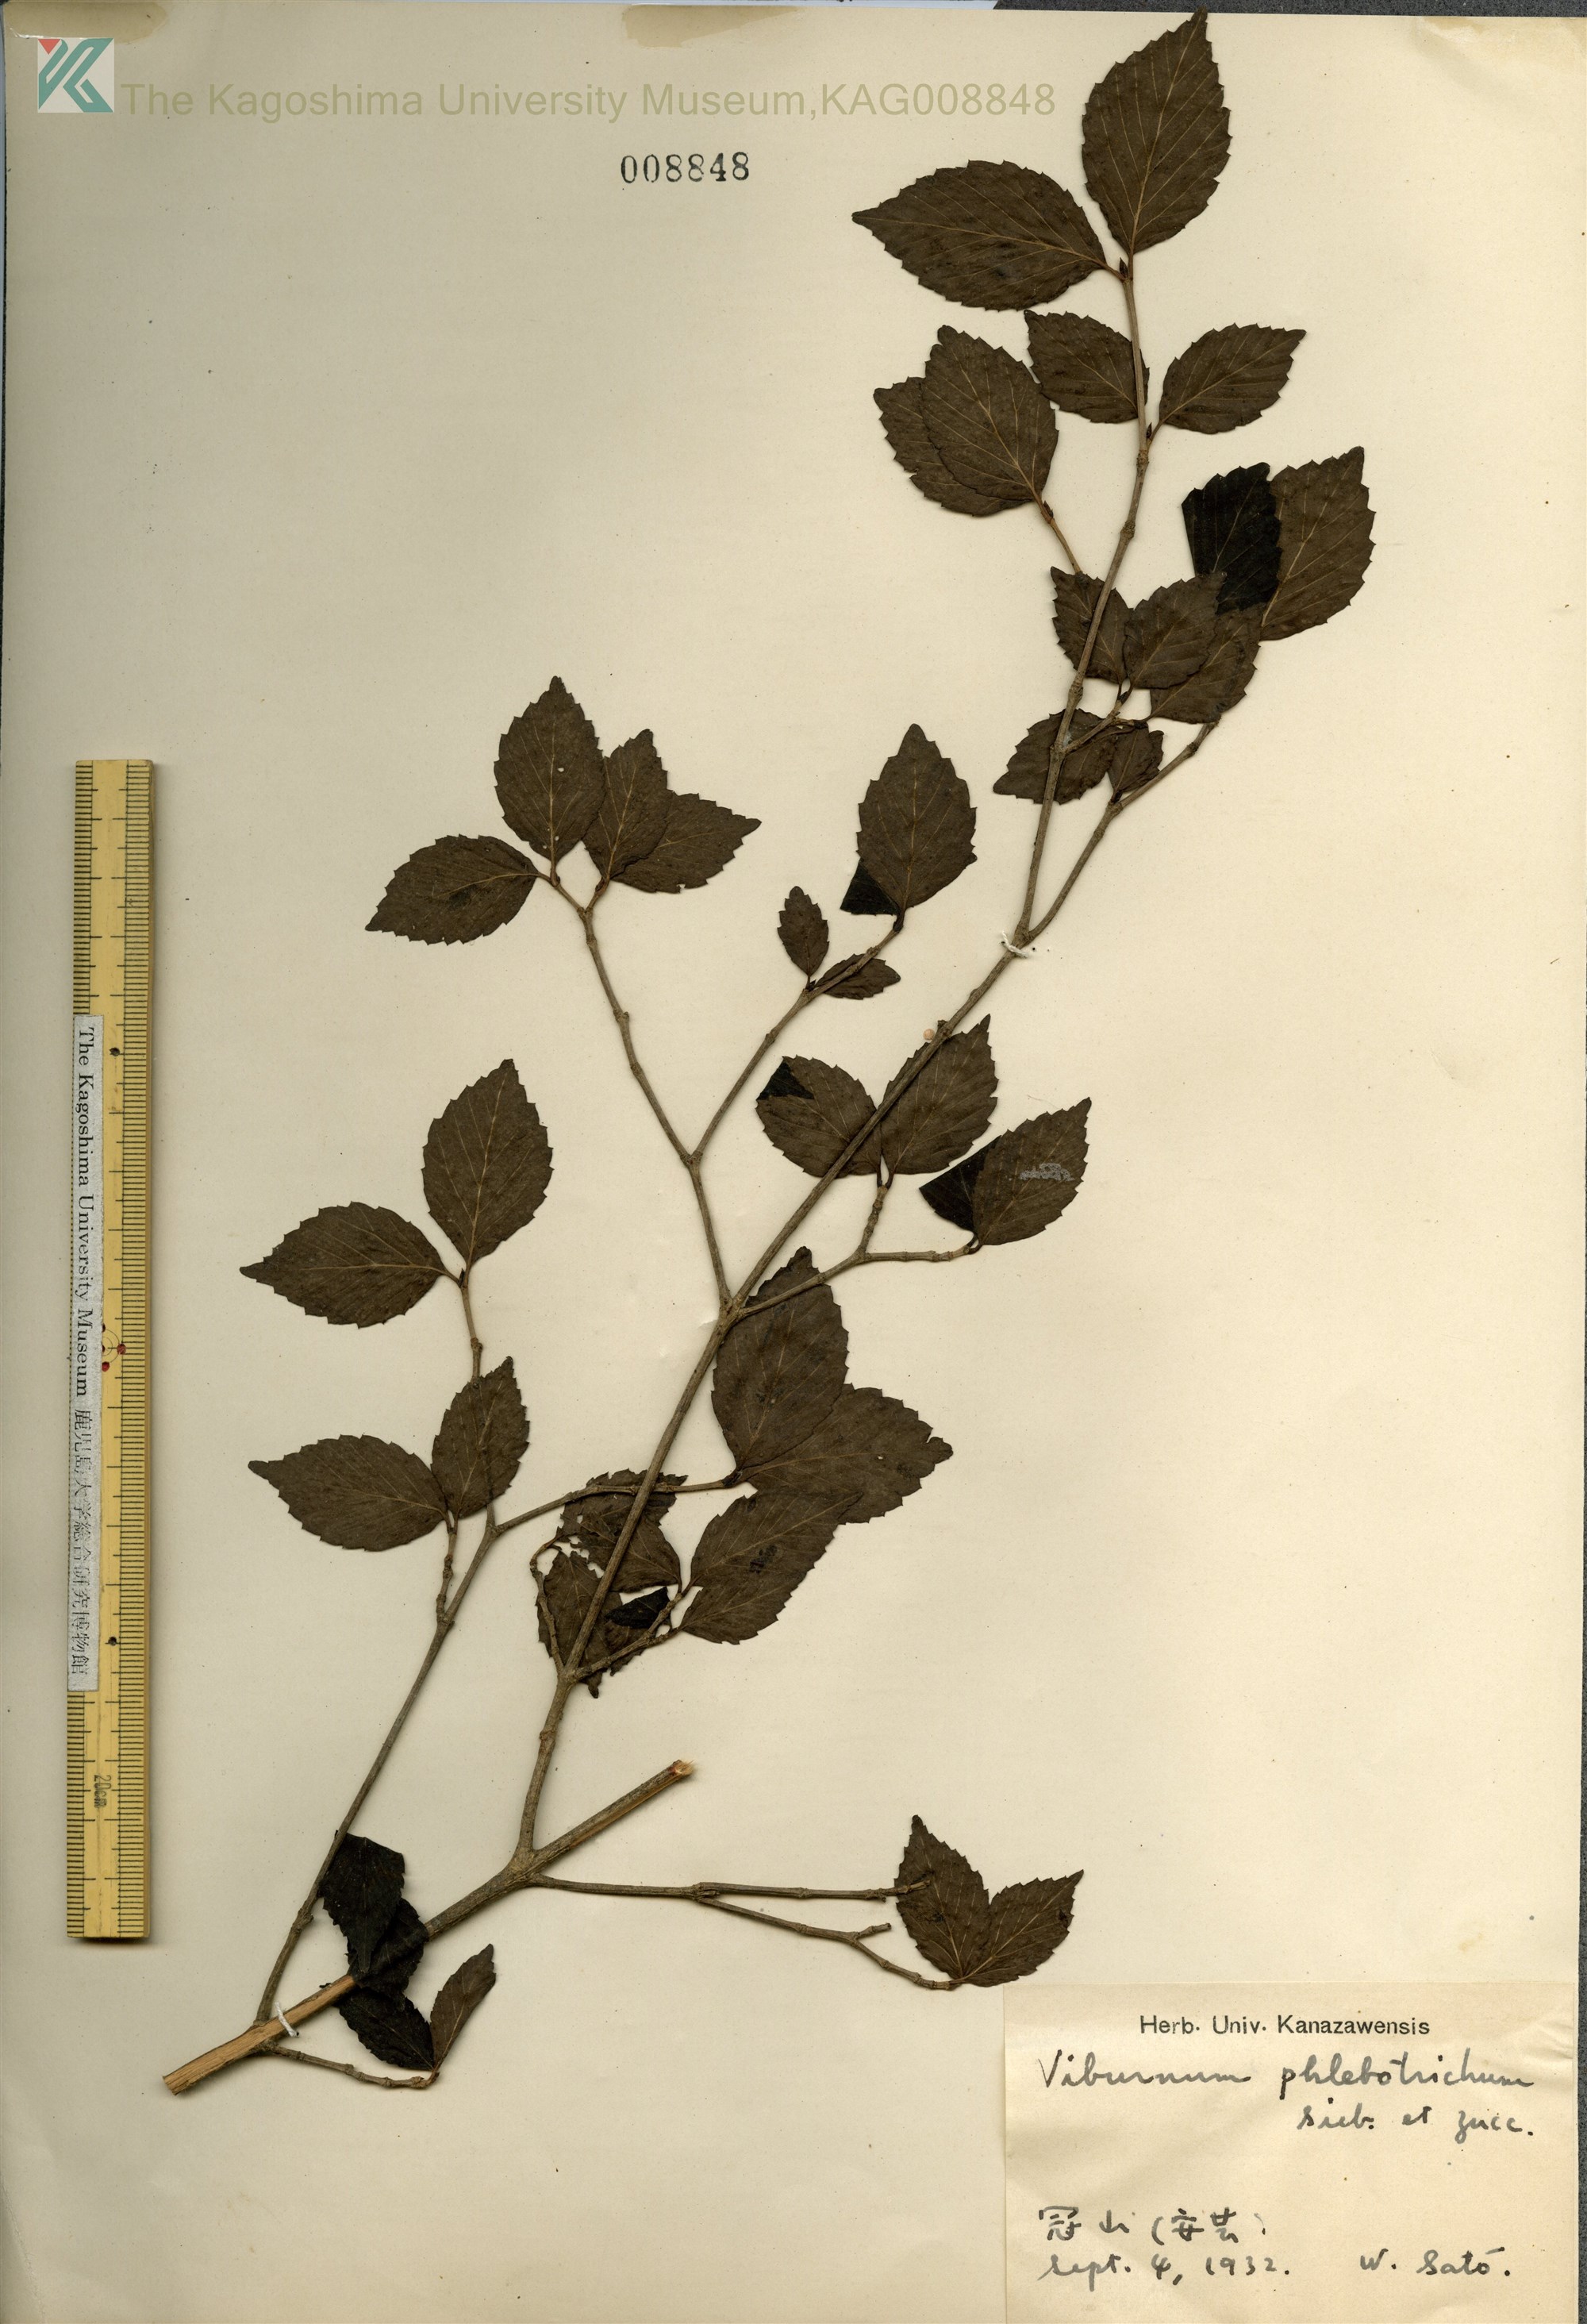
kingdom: Plantae
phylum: Tracheophyta
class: Magnoliopsida
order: Dipsacales
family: Viburnaceae
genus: Viburnum
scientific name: Viburnum phlebotrichum
